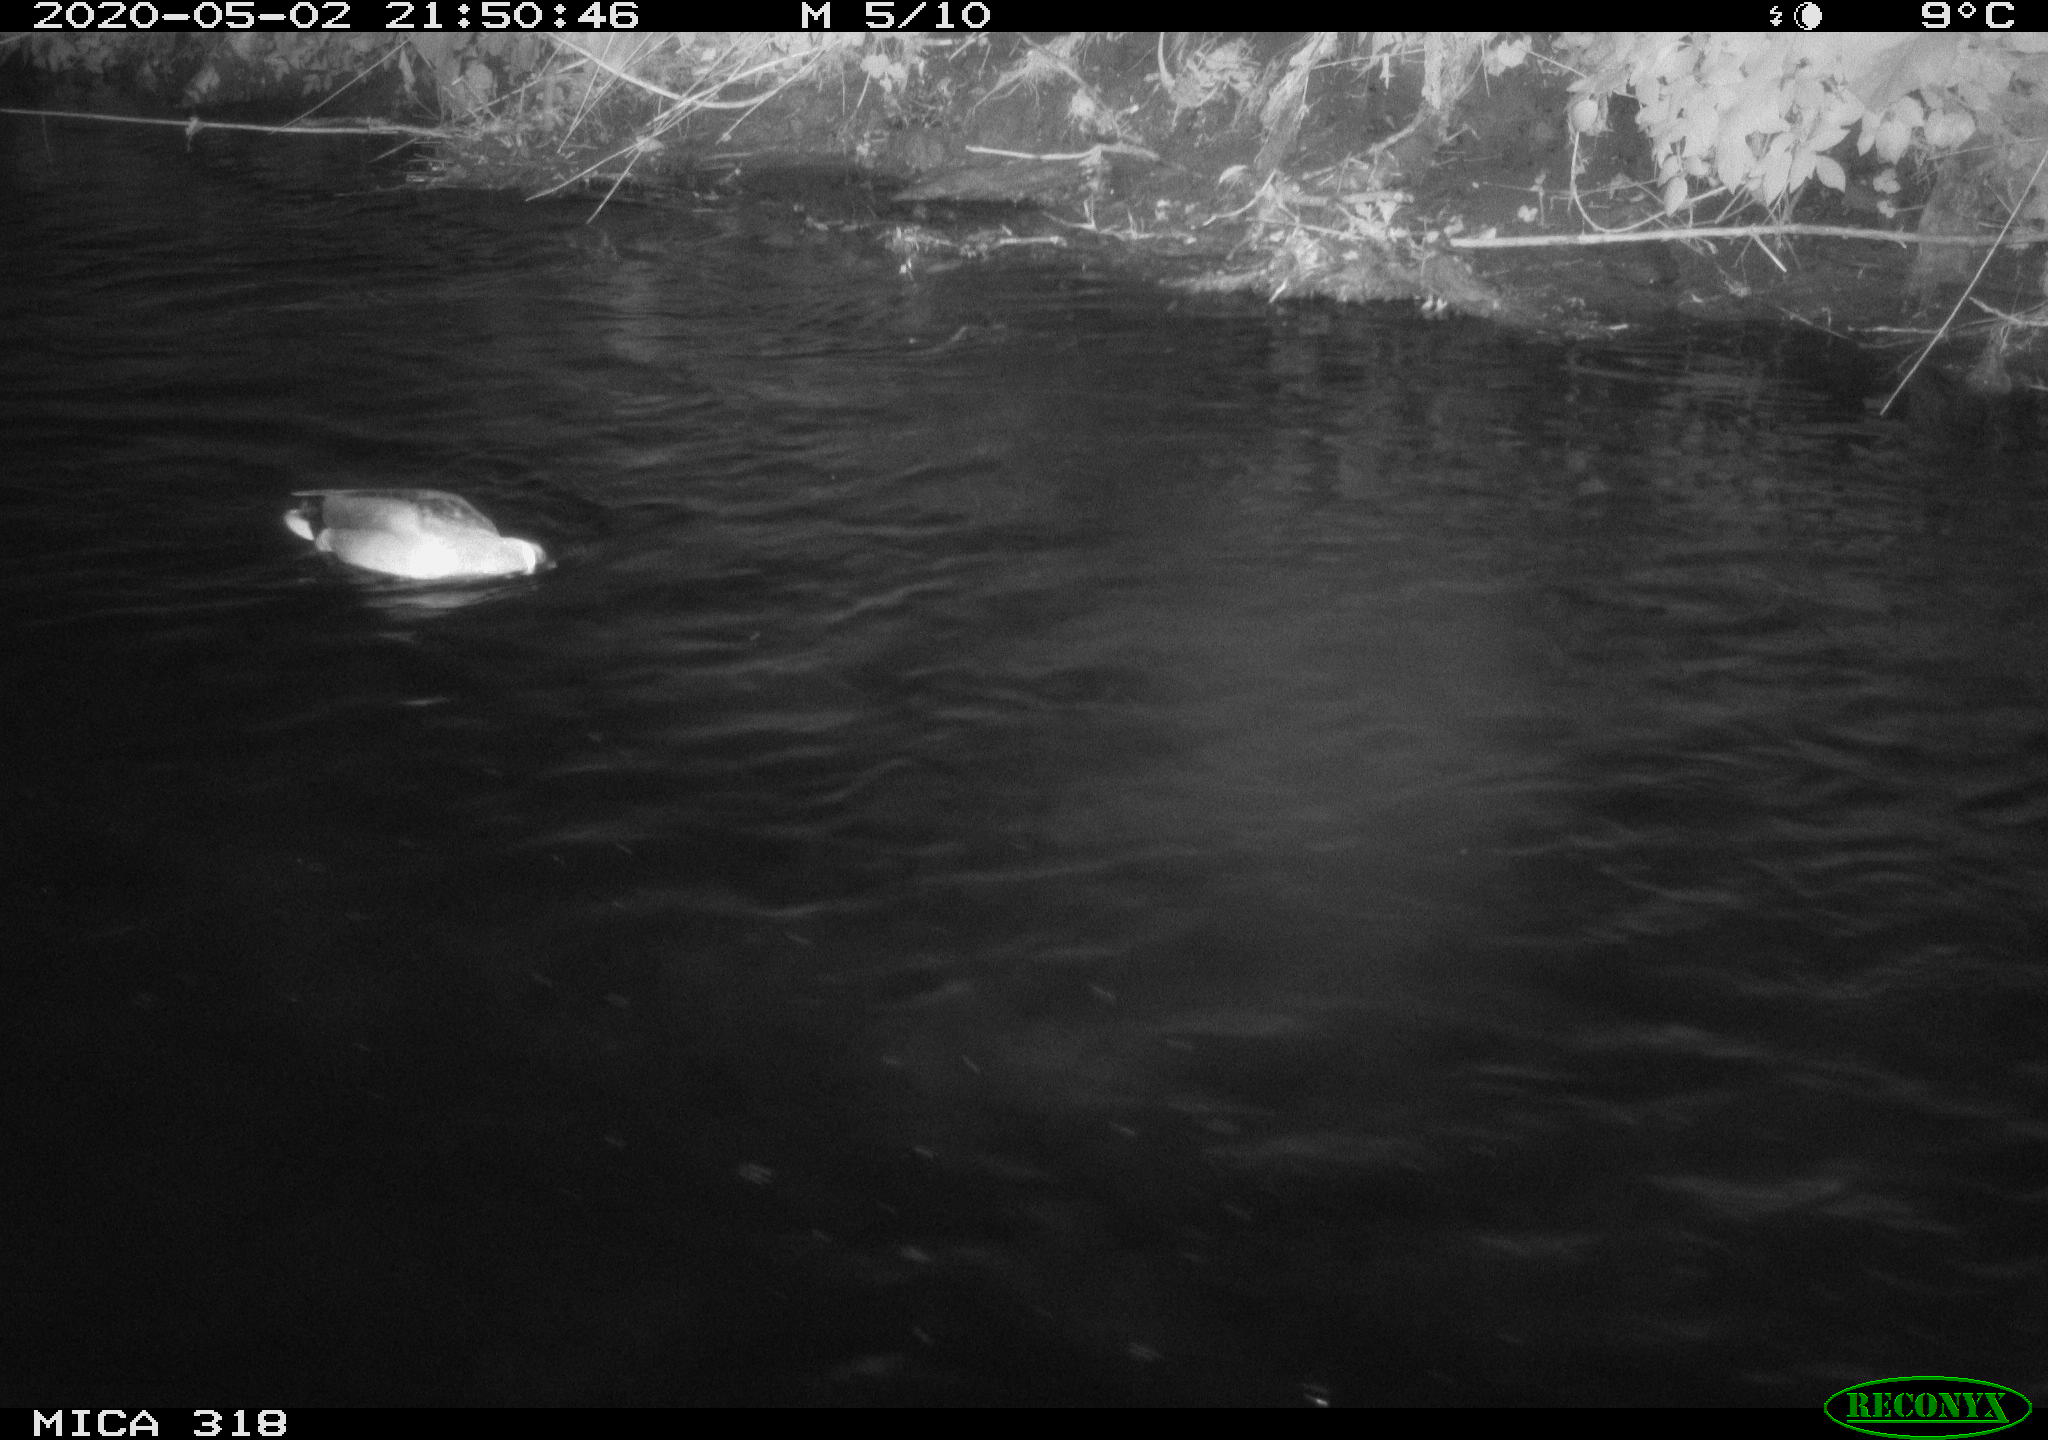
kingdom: Animalia
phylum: Chordata
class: Aves
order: Anseriformes
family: Anatidae
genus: Anas
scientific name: Anas platyrhynchos
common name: Mallard
